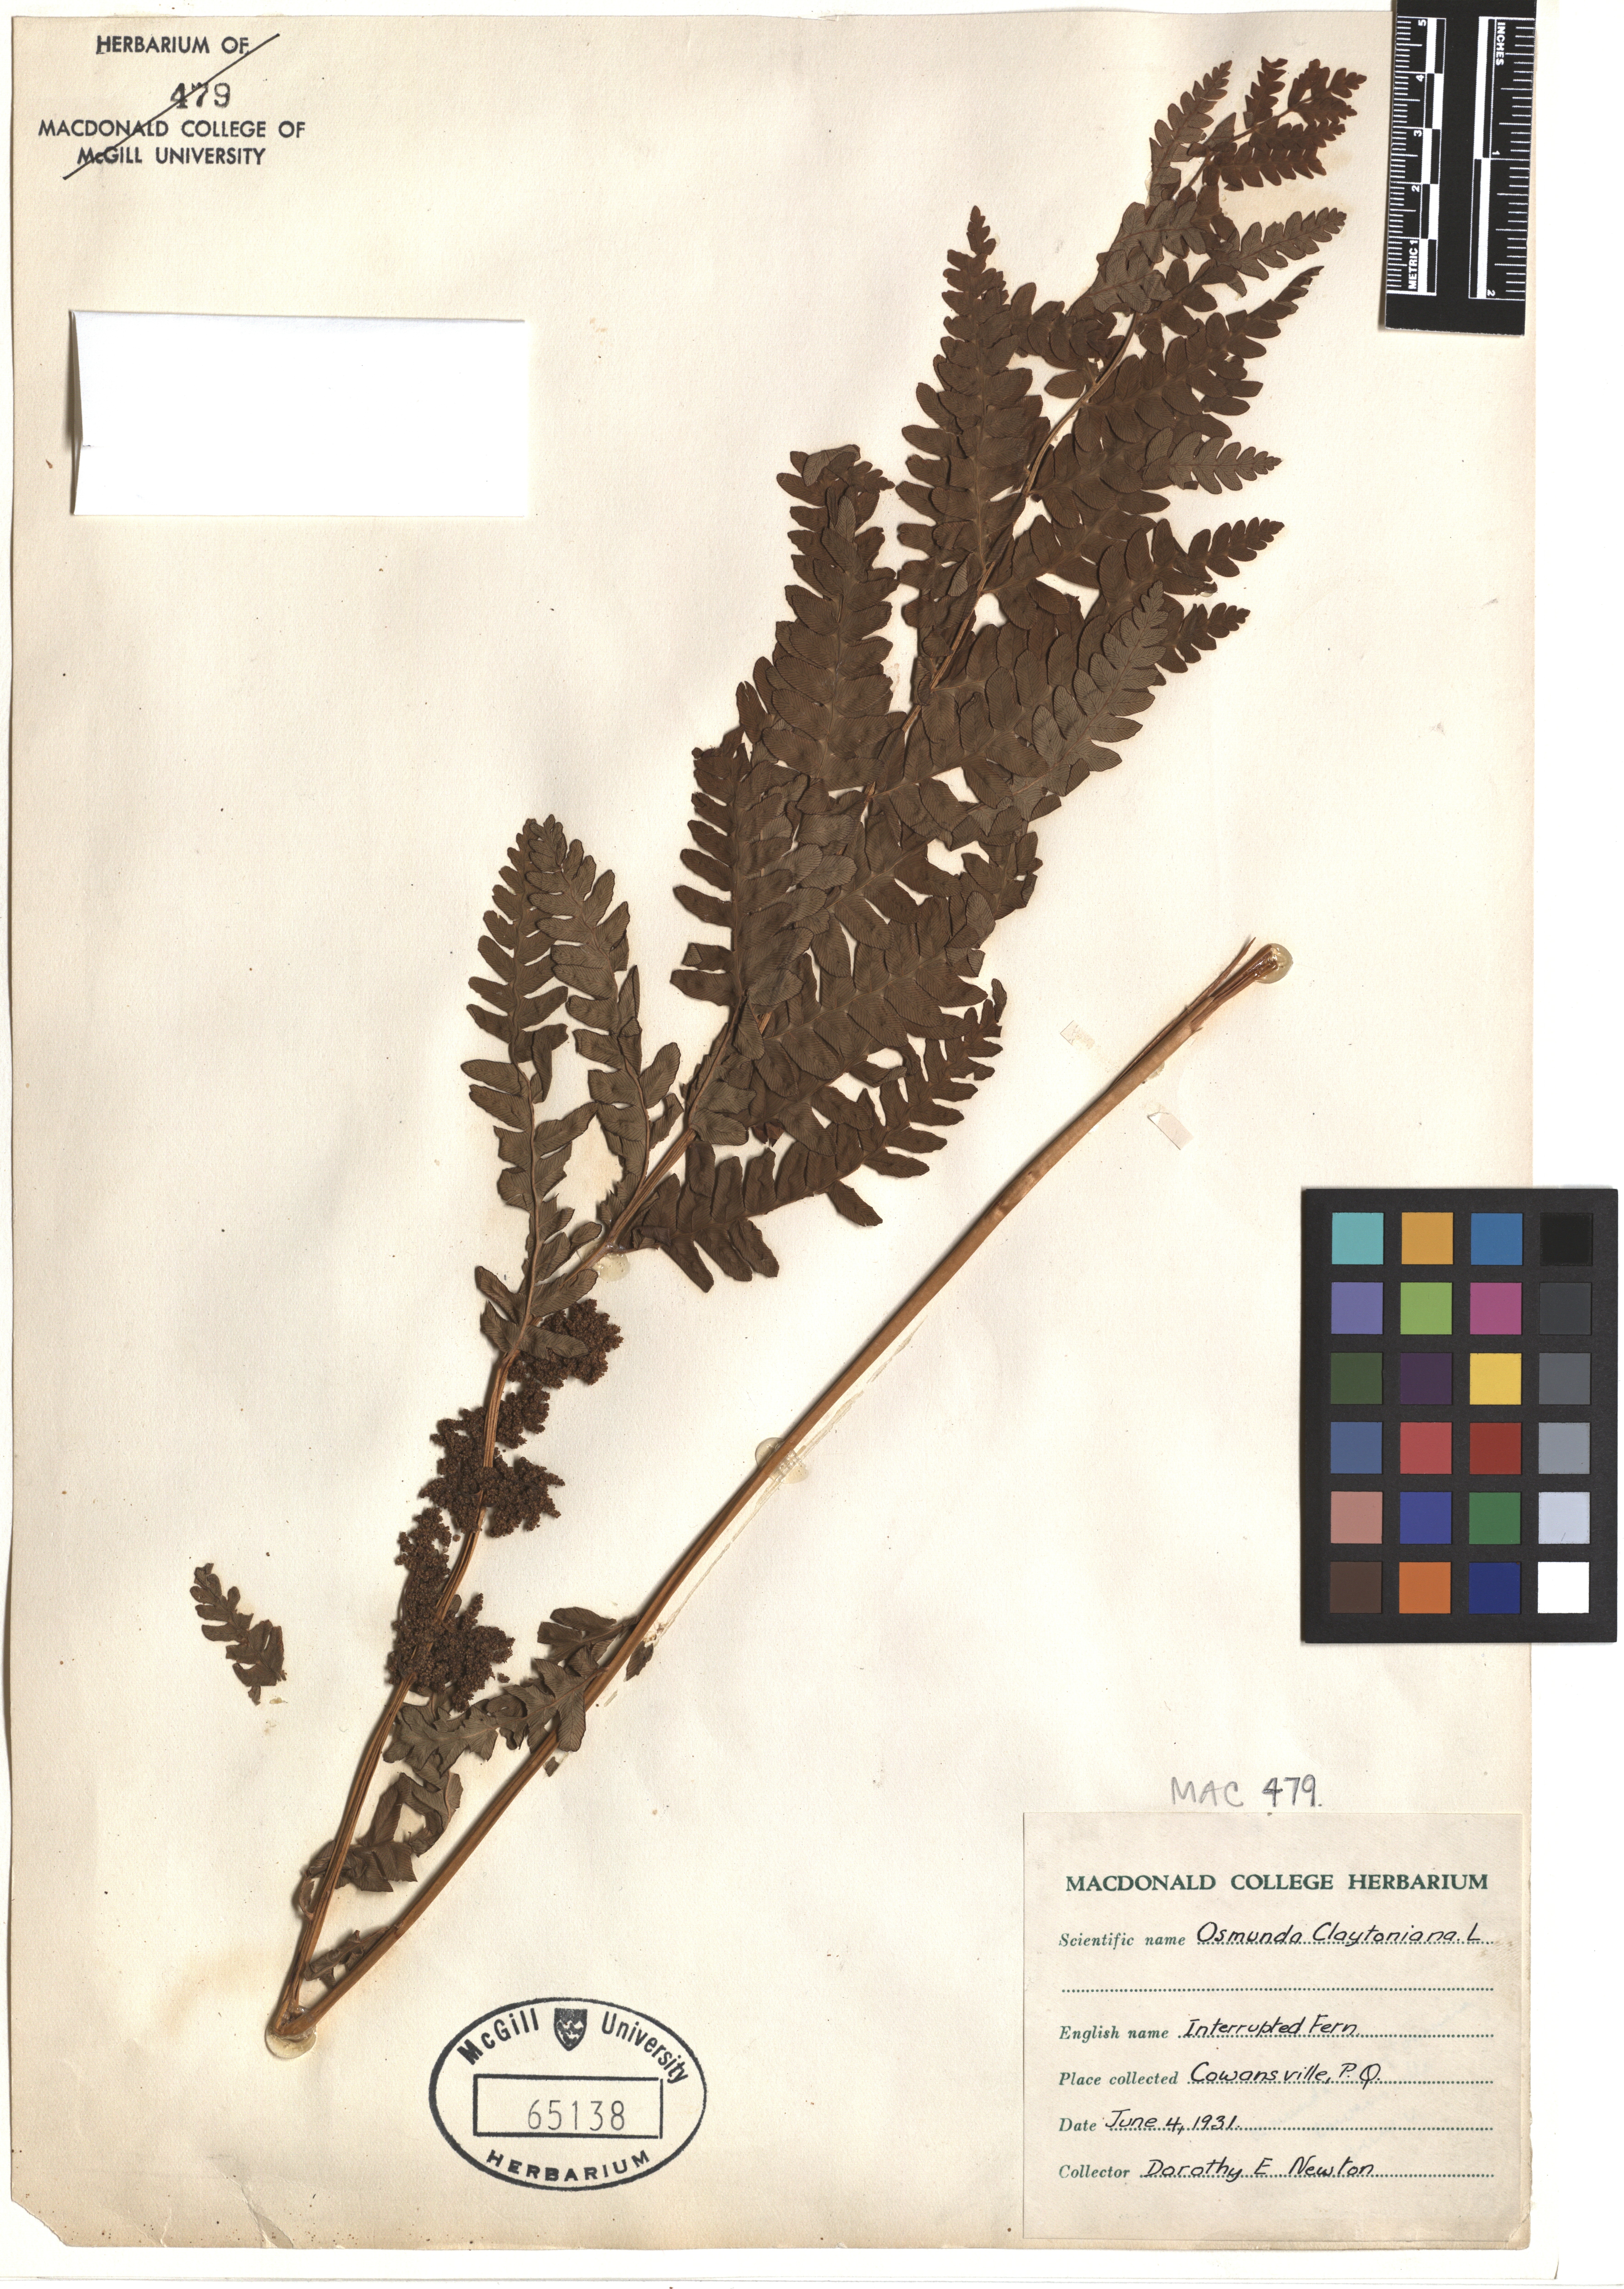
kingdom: Plantae
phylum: Tracheophyta
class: Polypodiopsida
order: Osmundales
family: Osmundaceae
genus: Claytosmunda
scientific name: Claytosmunda claytoniana
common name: Clayton's fern
